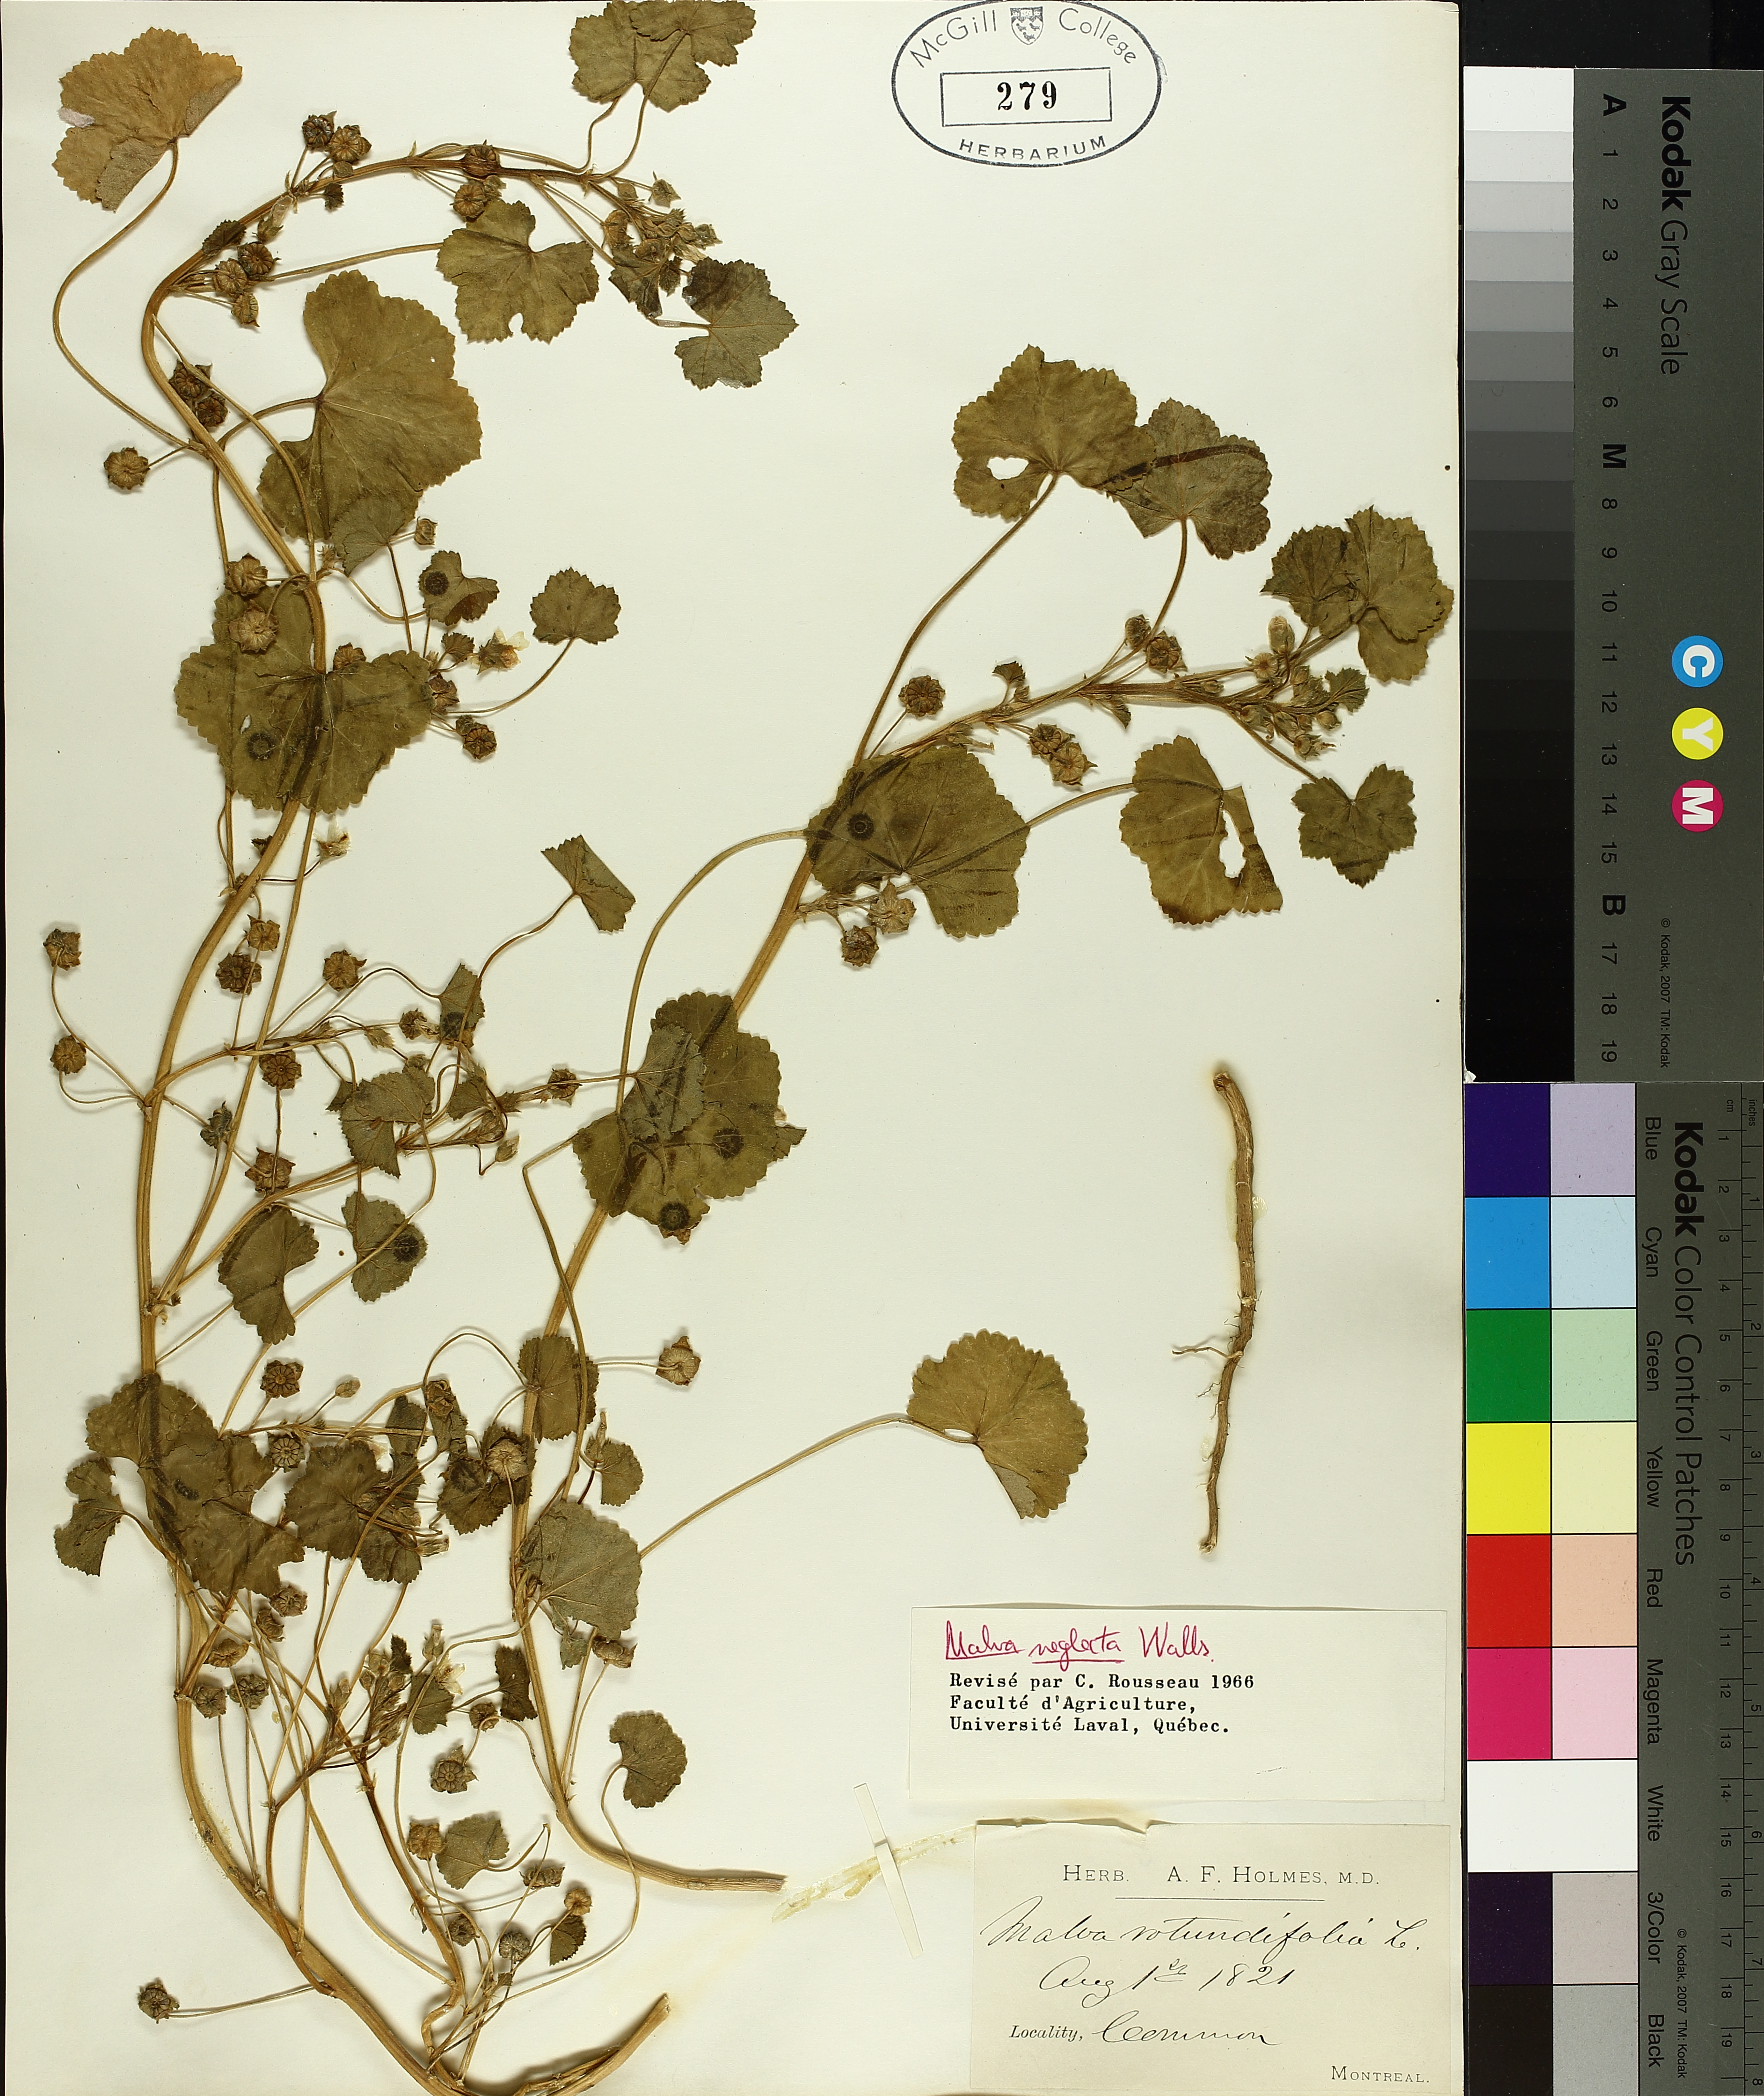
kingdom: Plantae
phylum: Tracheophyta
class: Magnoliopsida
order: Malvales
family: Malvaceae
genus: Malva
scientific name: Malva neglecta
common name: Common mallow
